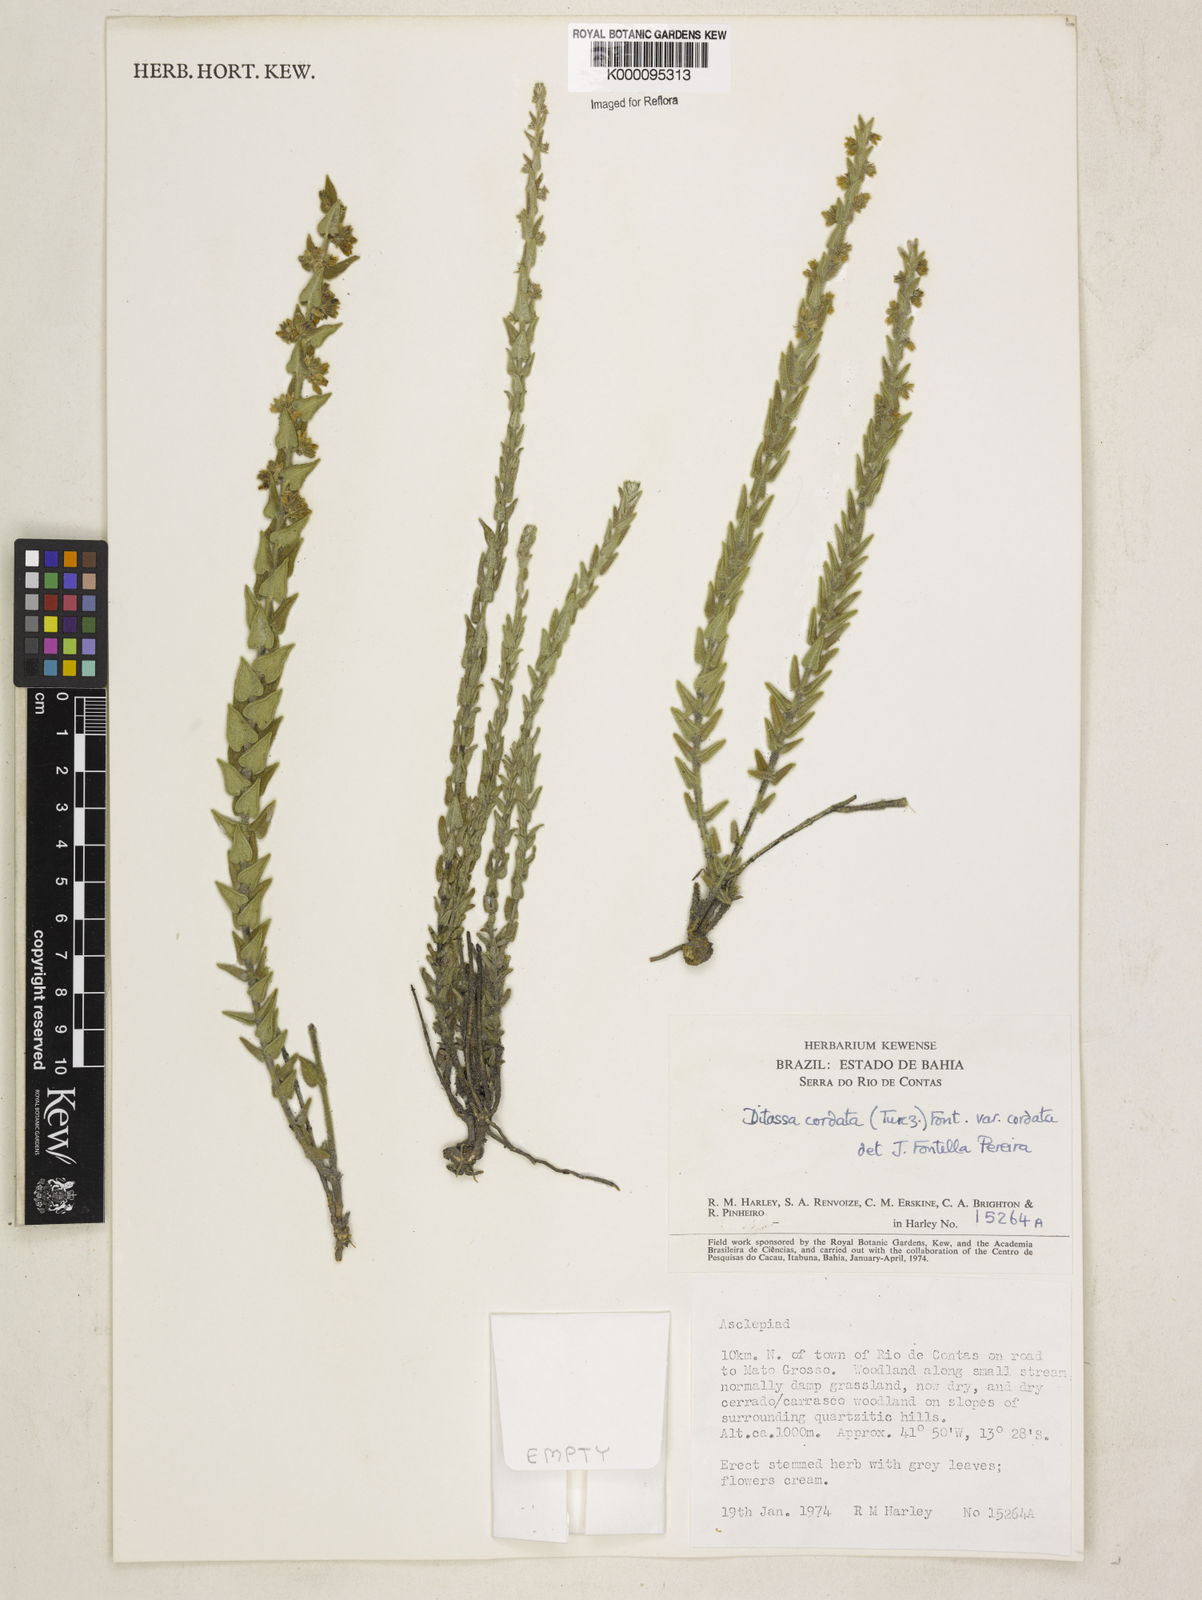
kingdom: Plantae
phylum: Tracheophyta
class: Magnoliopsida
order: Gentianales
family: Apocynaceae
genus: Minaria
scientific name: Minaria cordata
